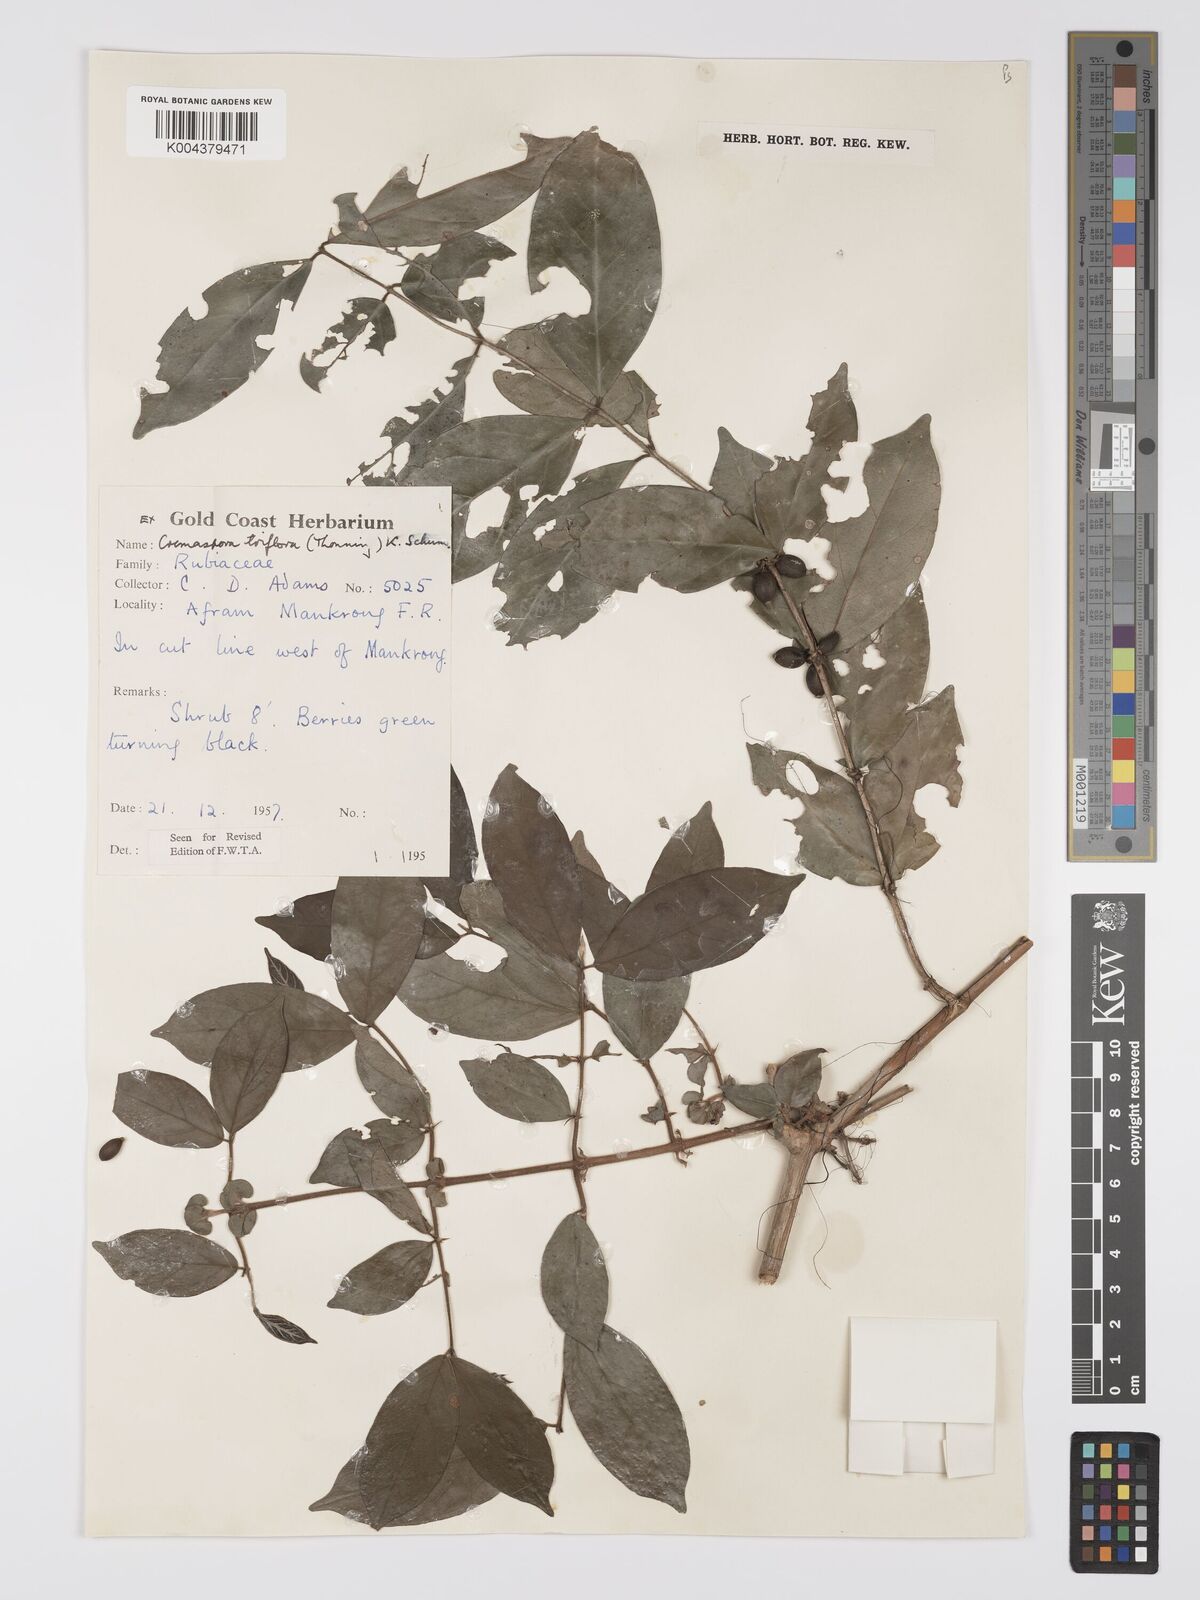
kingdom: Plantae
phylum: Tracheophyta
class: Magnoliopsida
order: Gentianales
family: Rubiaceae
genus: Cremaspora
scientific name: Cremaspora triflora
